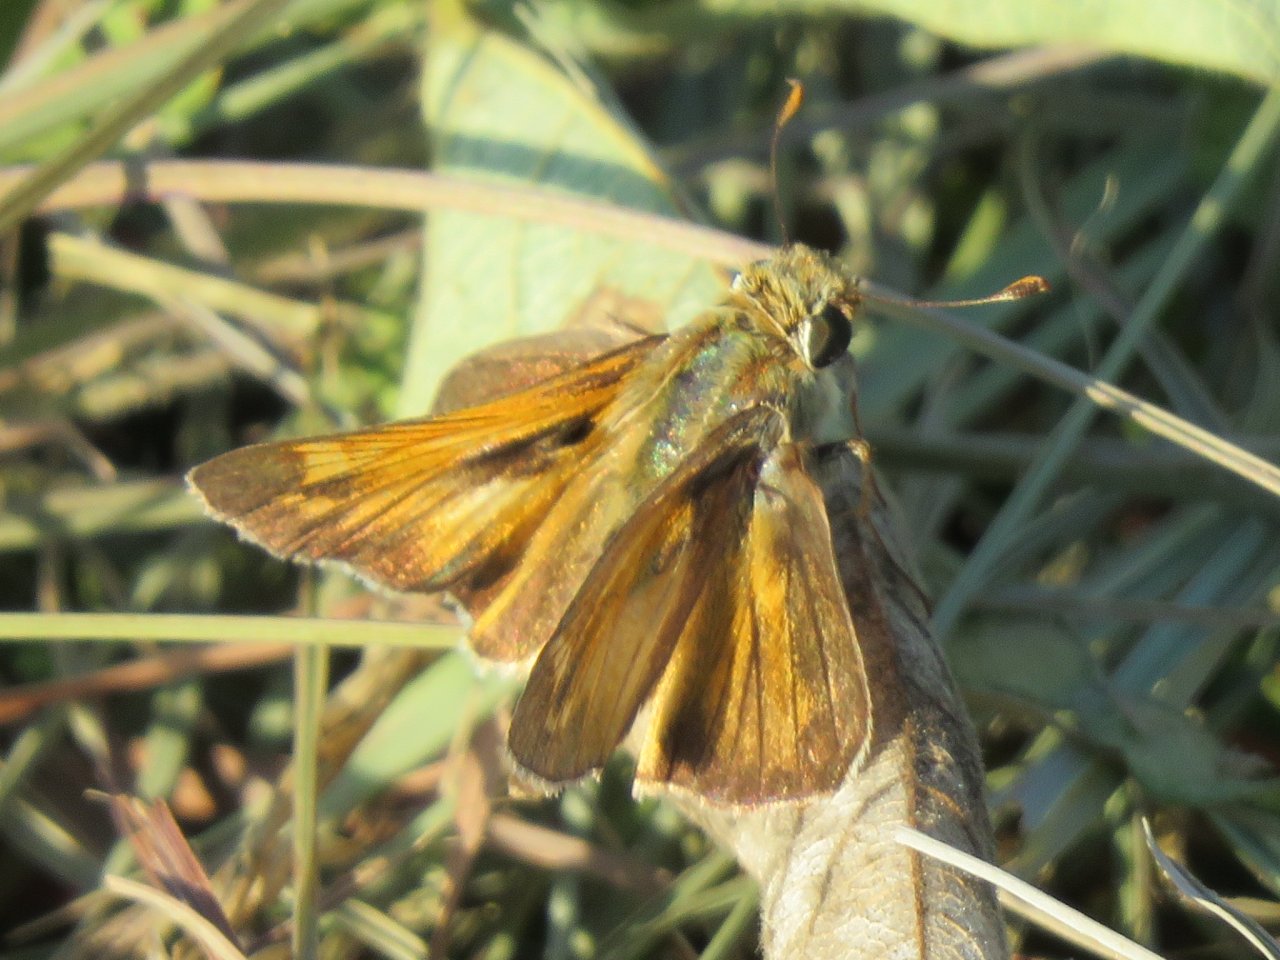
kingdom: Animalia
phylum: Arthropoda
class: Insecta
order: Lepidoptera
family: Hesperiidae
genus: Atalopedes
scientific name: Atalopedes campestris
